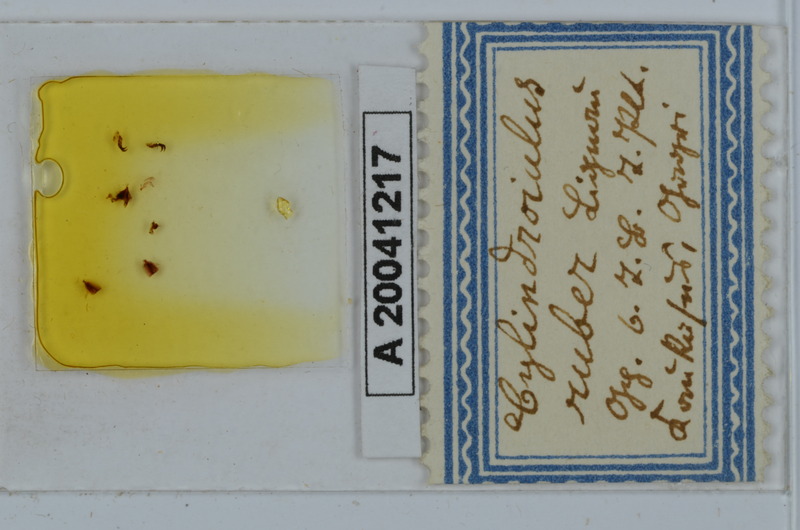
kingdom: Animalia
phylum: Arthropoda
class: Diplopoda
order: Julida
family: Julidae
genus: Caucasoiulus
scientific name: Caucasoiulus ruber
